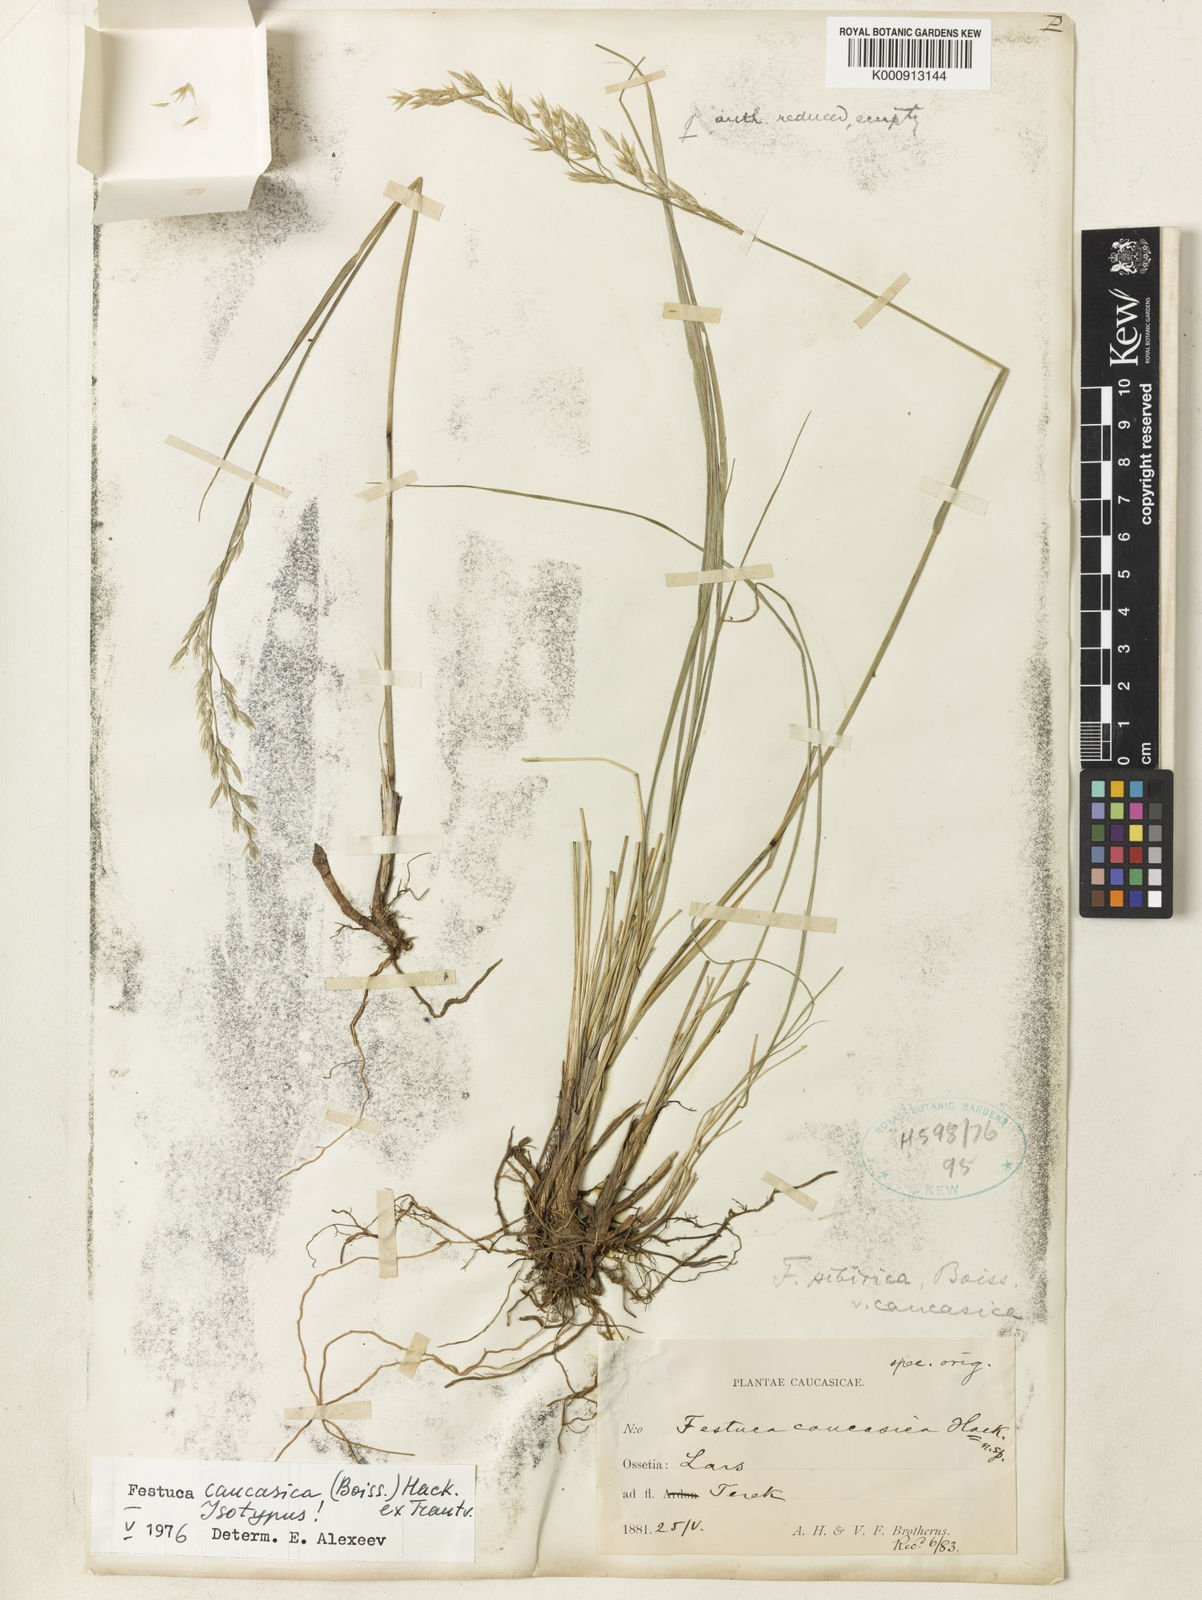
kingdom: Plantae
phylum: Tracheophyta
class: Liliopsida
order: Poales
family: Poaceae
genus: Festuca
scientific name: Festuca olgae
